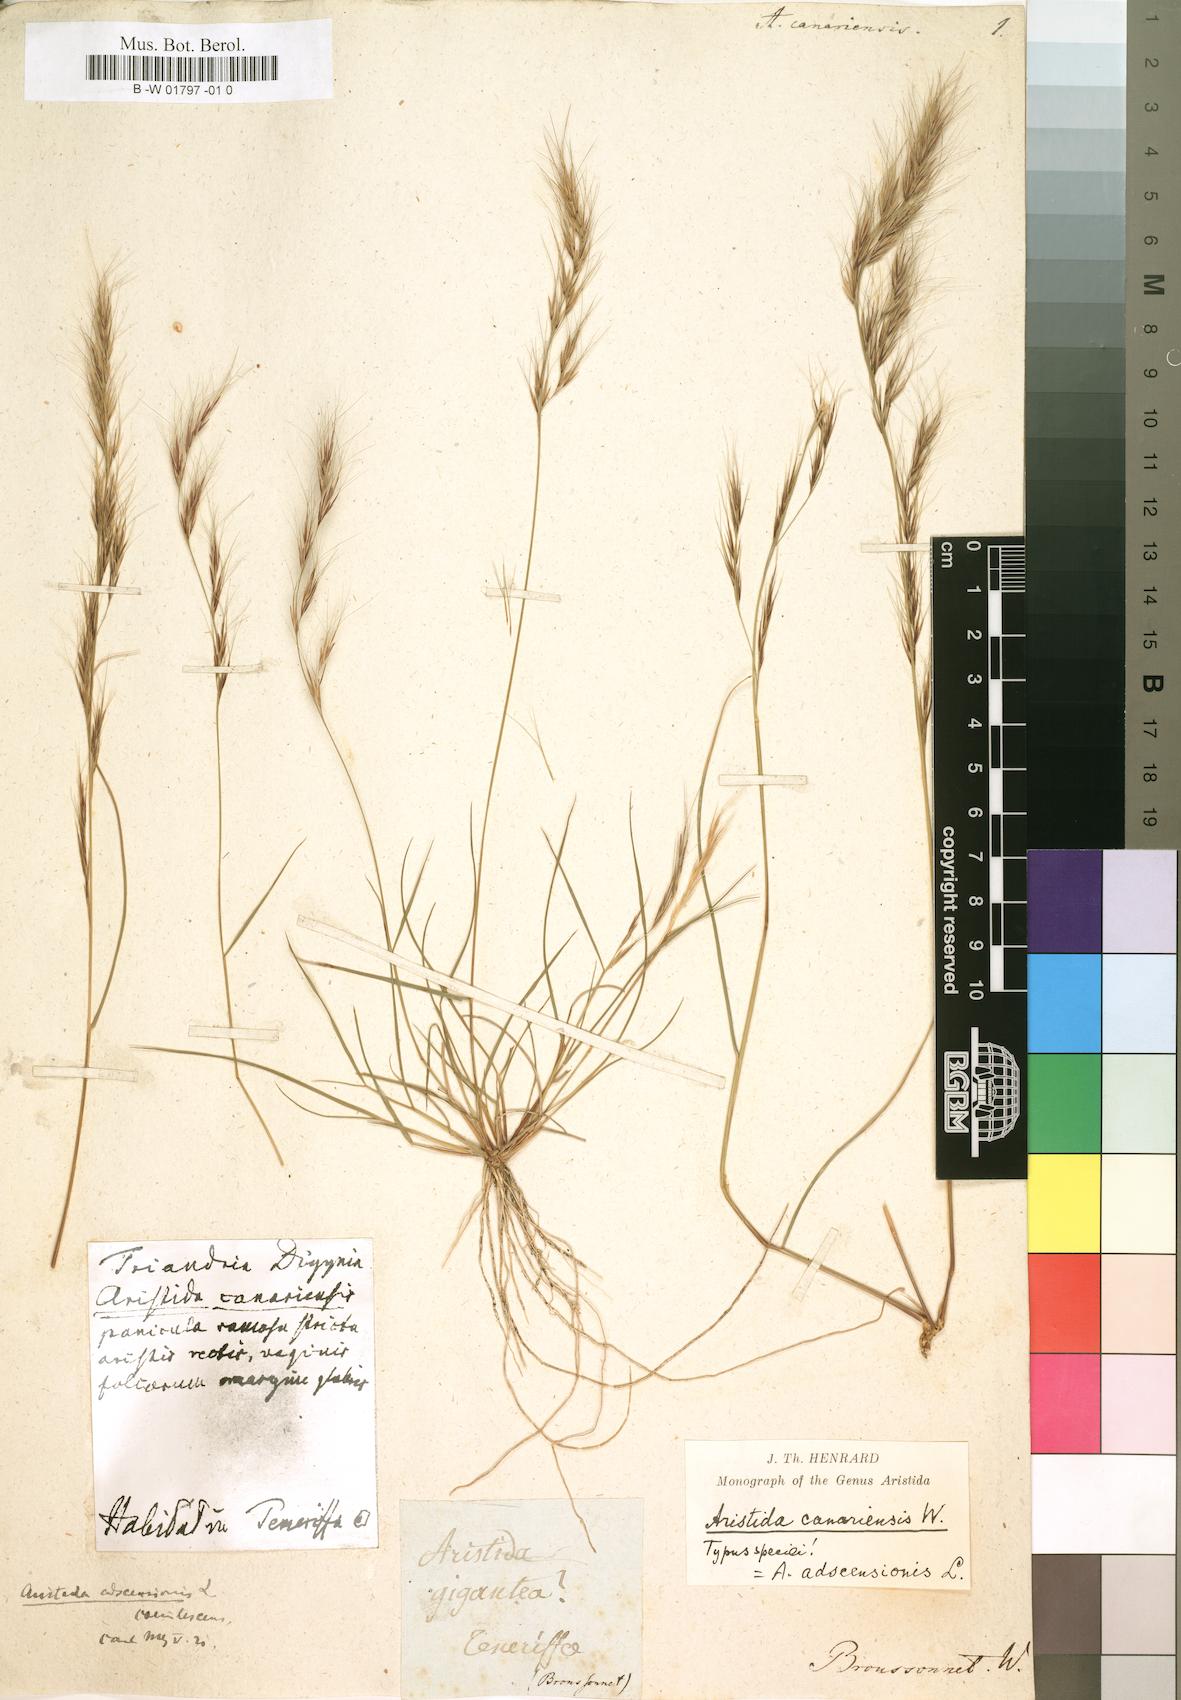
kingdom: Plantae
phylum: Tracheophyta
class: Liliopsida
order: Poales
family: Poaceae
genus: Aristida
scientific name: Aristida adscensionis
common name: Sixweeks threeawn
